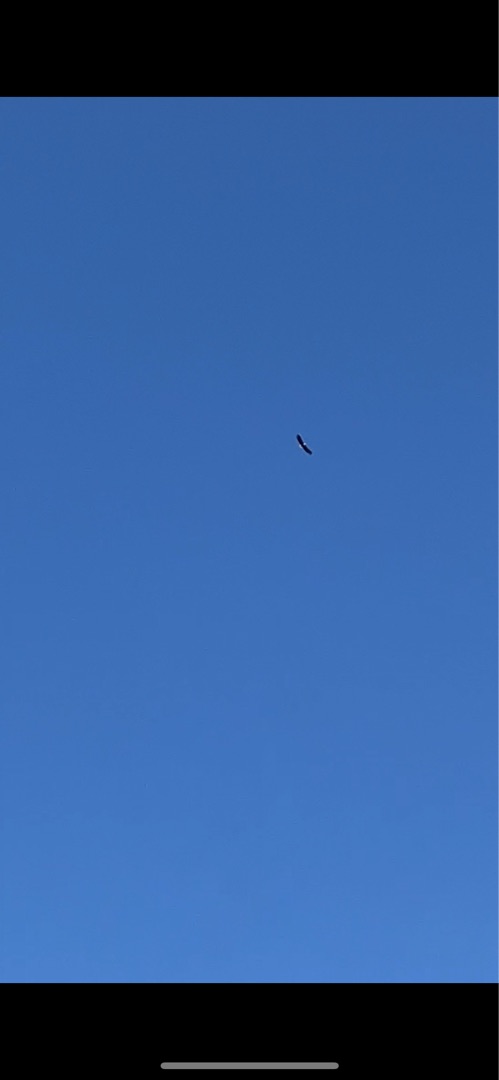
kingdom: Animalia
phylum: Chordata
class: Aves
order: Accipitriformes
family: Accipitridae
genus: Haliaeetus
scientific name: Haliaeetus albicilla
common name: Havørn
